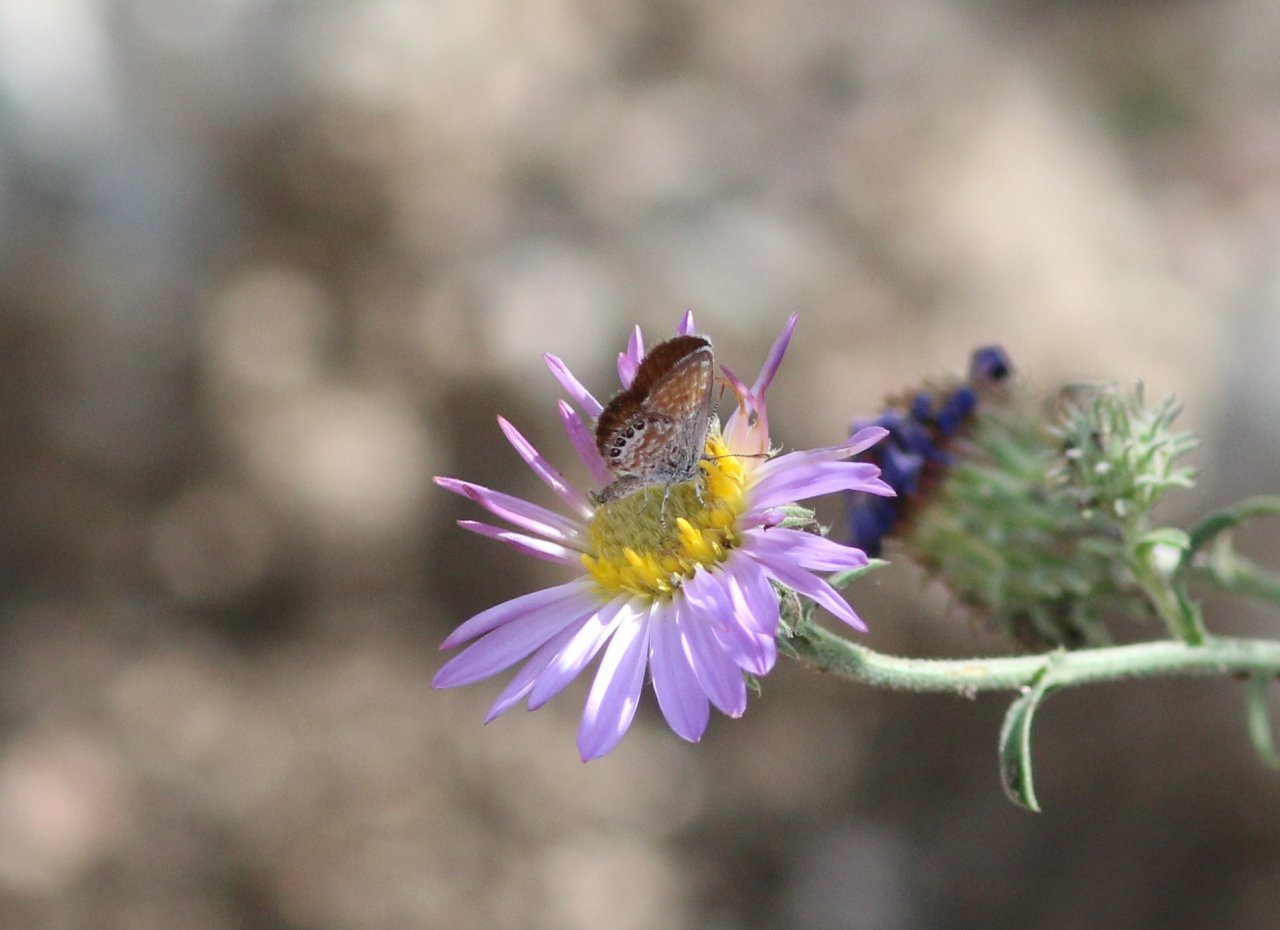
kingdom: Animalia
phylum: Arthropoda
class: Insecta
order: Lepidoptera
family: Lycaenidae
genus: Brephidium
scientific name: Brephidium exilis
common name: Western Pygmy-Blue
